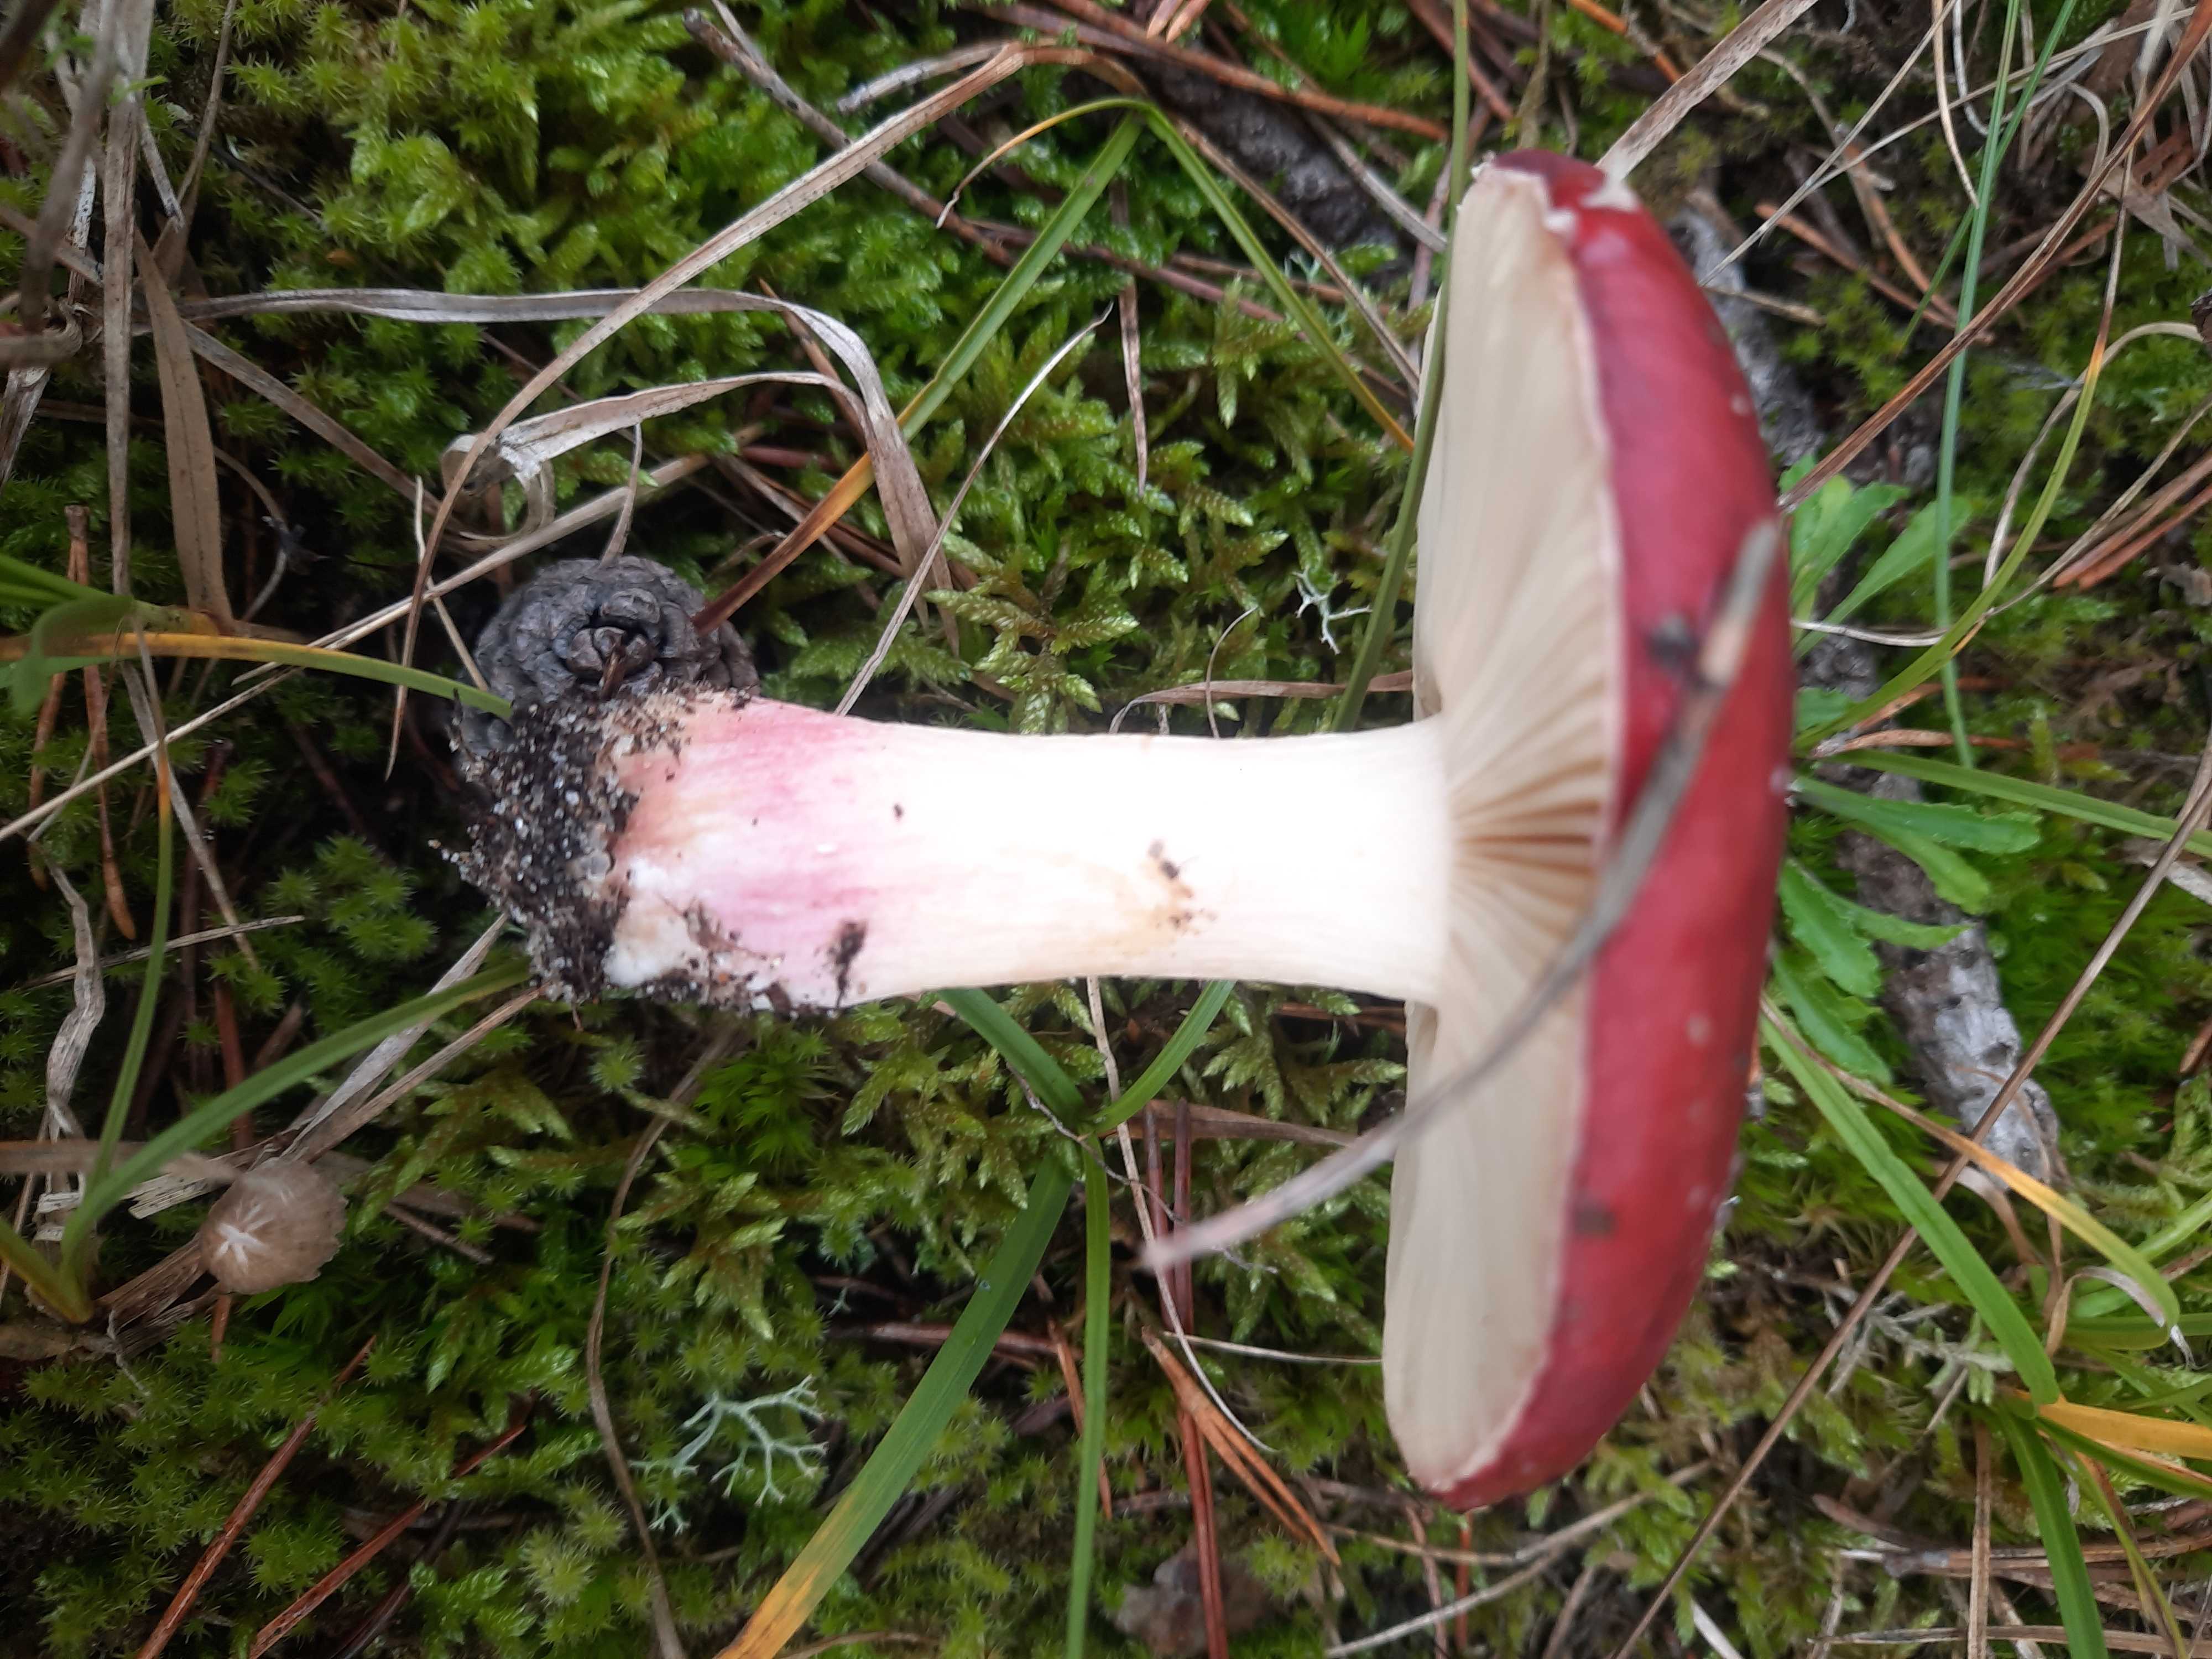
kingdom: Fungi
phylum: Basidiomycota
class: Agaricomycetes
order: Russulales
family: Russulaceae
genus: Russula
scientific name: Russula xerampelina
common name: hummer-skørhat
